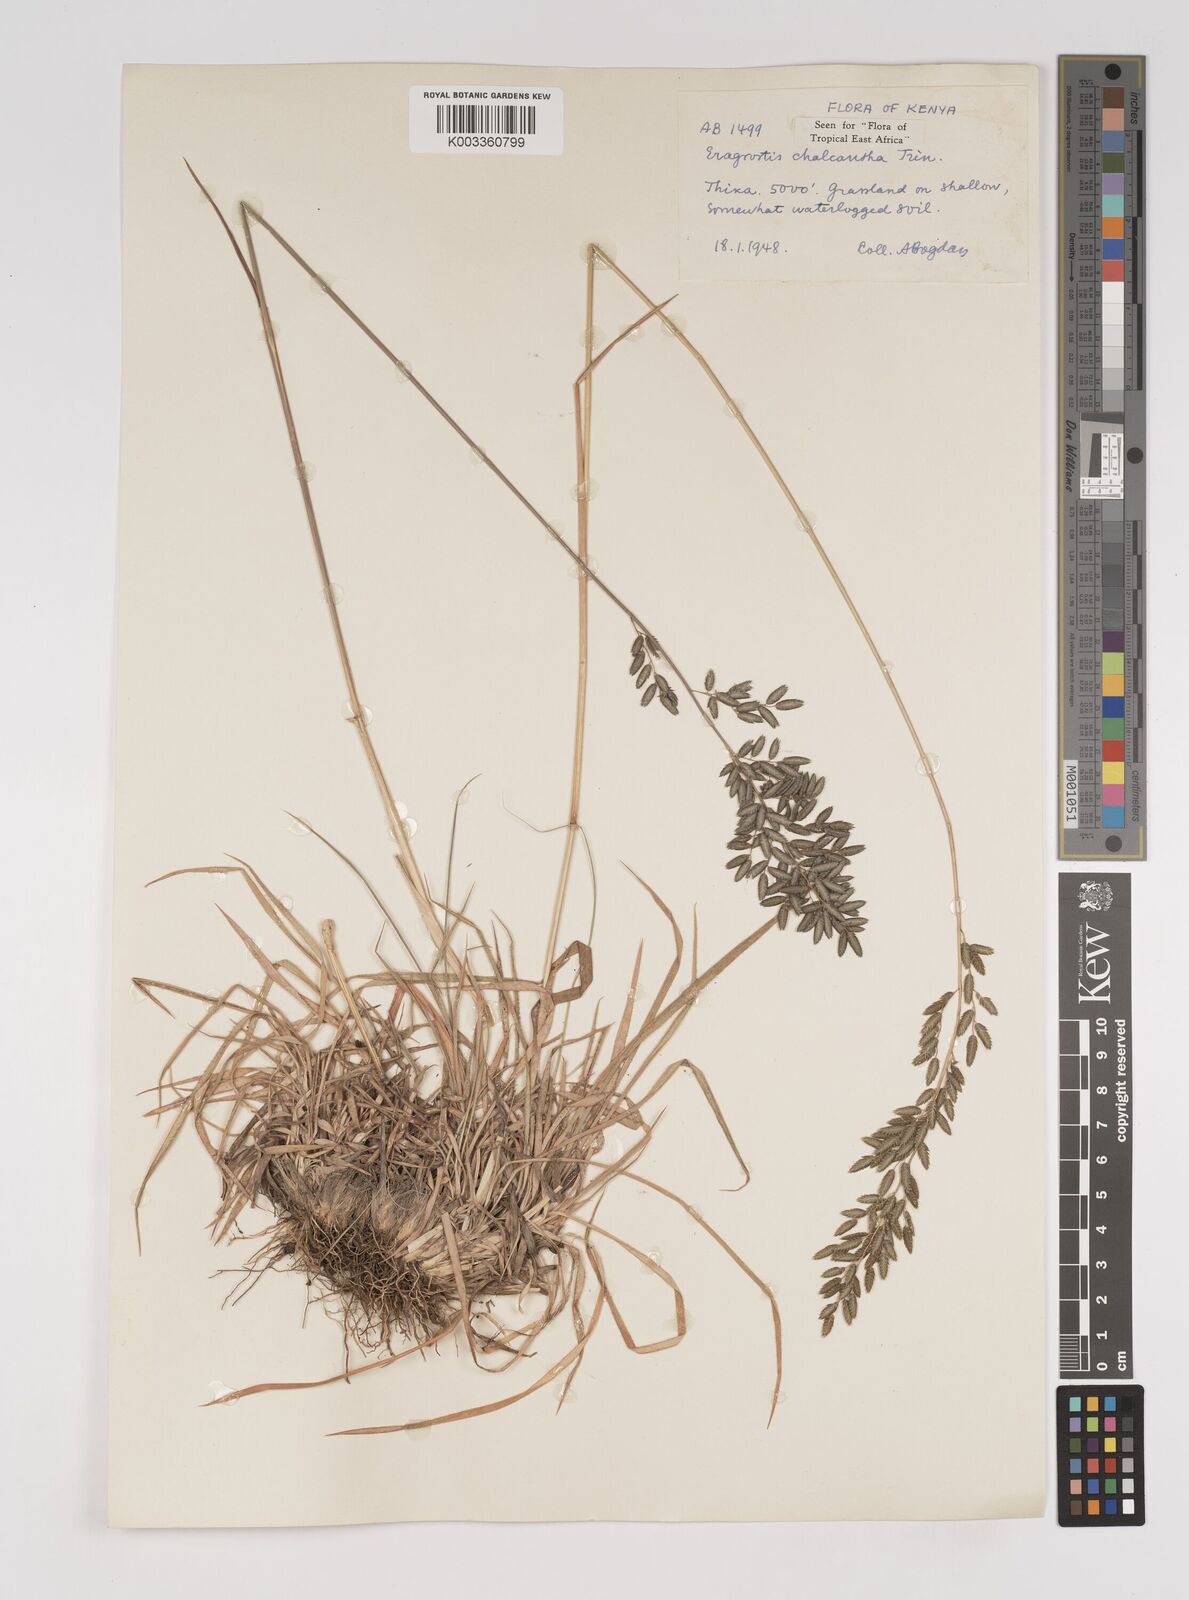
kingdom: Plantae
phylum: Tracheophyta
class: Liliopsida
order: Poales
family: Poaceae
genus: Eragrostis
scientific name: Eragrostis racemosa
